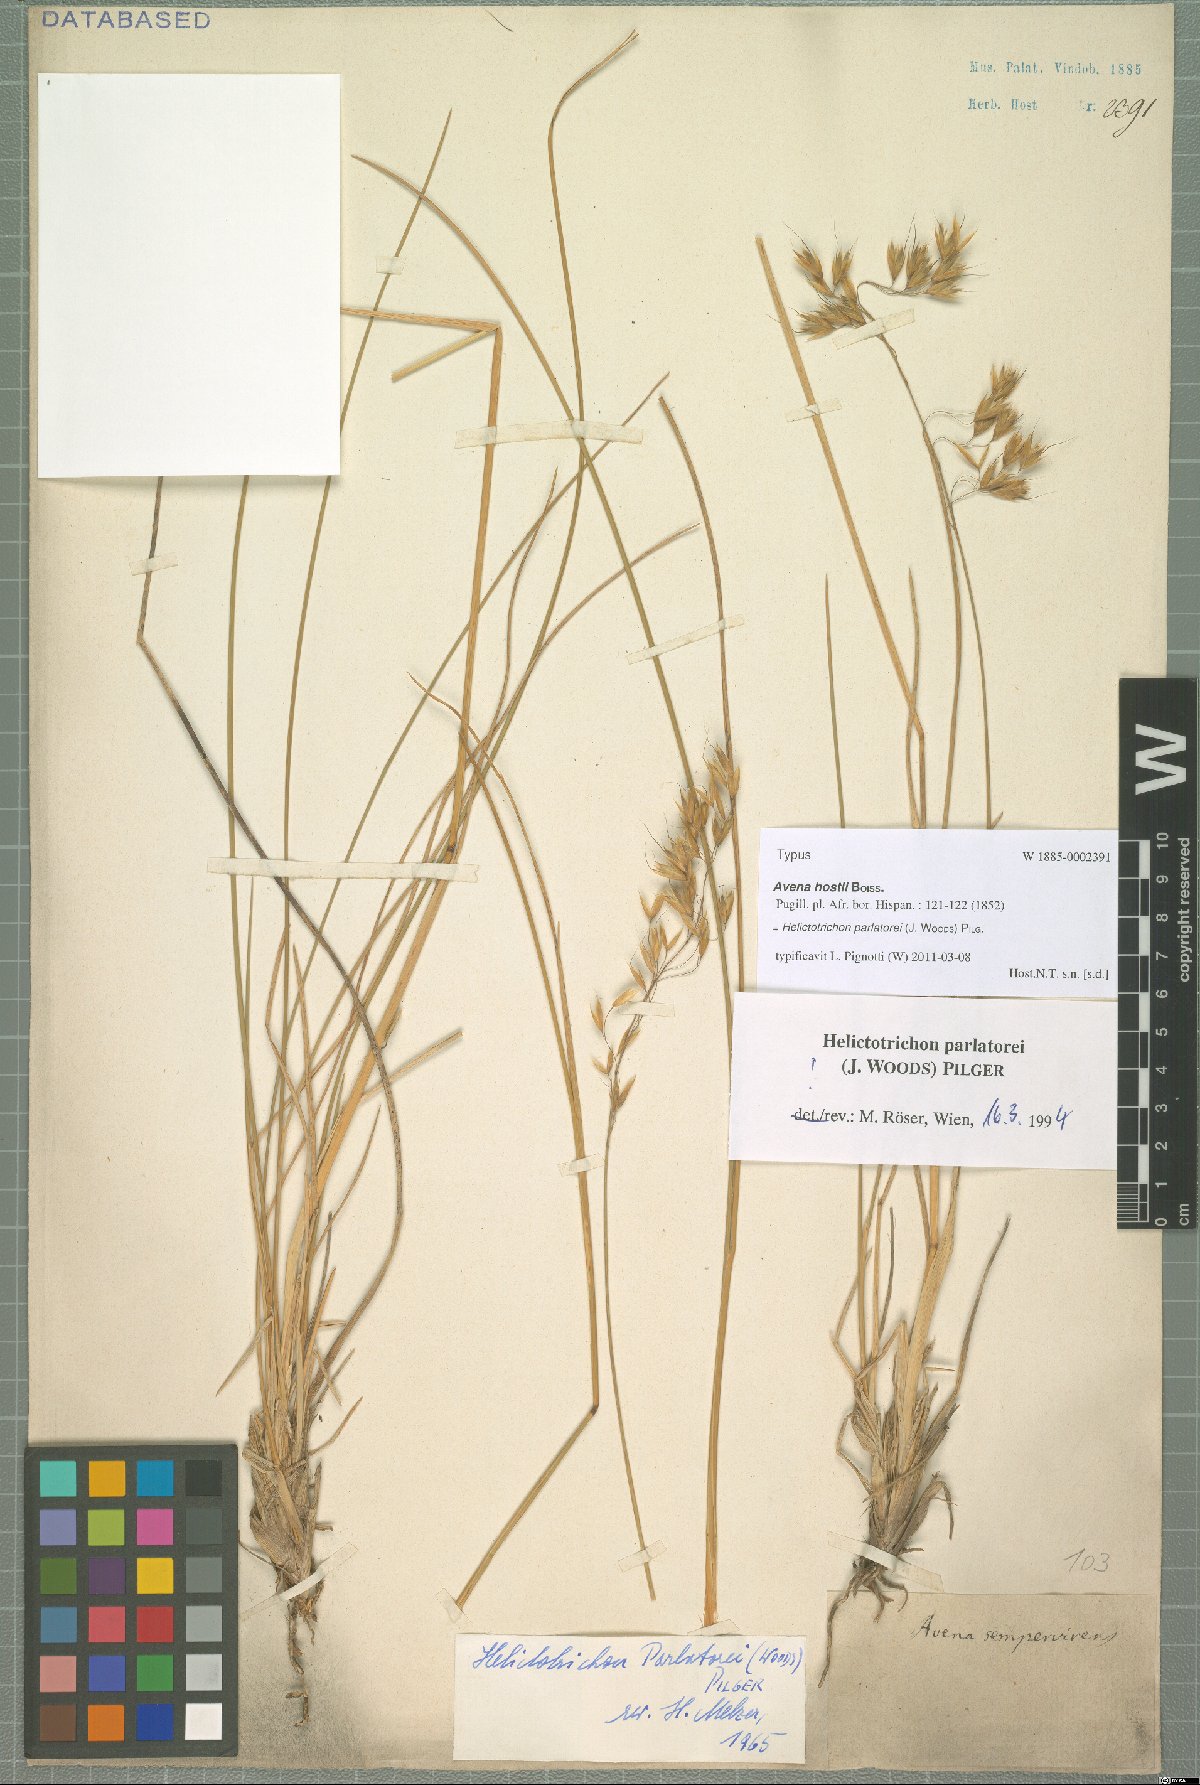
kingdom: Plantae
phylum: Tracheophyta
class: Liliopsida
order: Poales
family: Poaceae
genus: Helictotrichon
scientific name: Helictotrichon parlatorei
